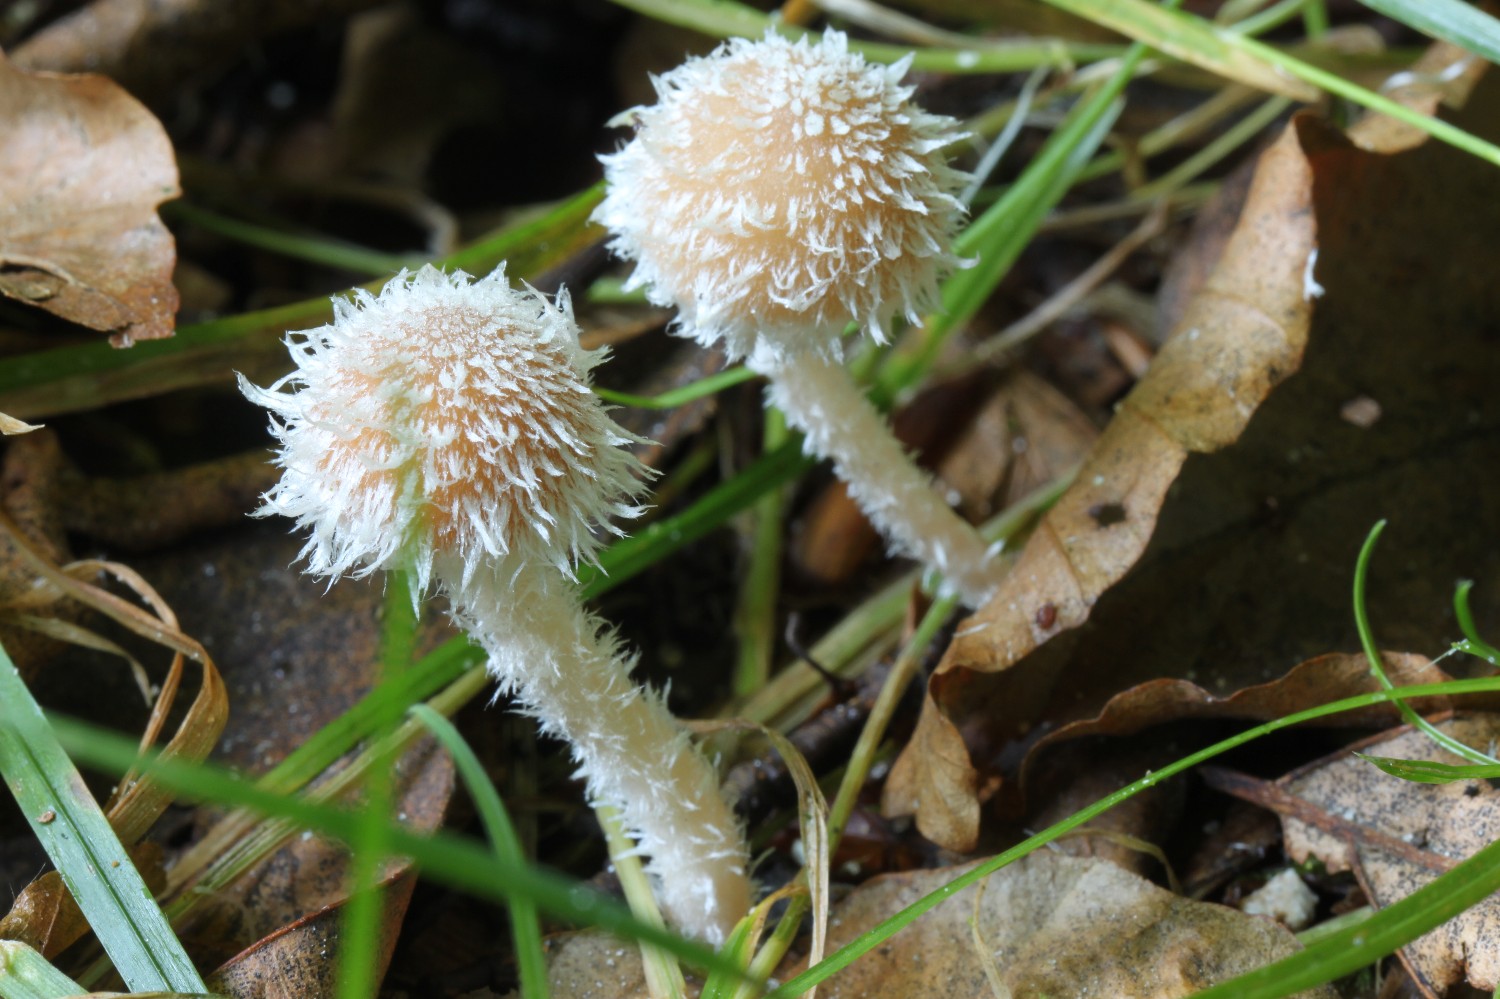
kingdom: Fungi
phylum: Basidiomycota
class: Agaricomycetes
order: Agaricales
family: Psathyrellaceae
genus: Psathyrella
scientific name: Psathyrella
